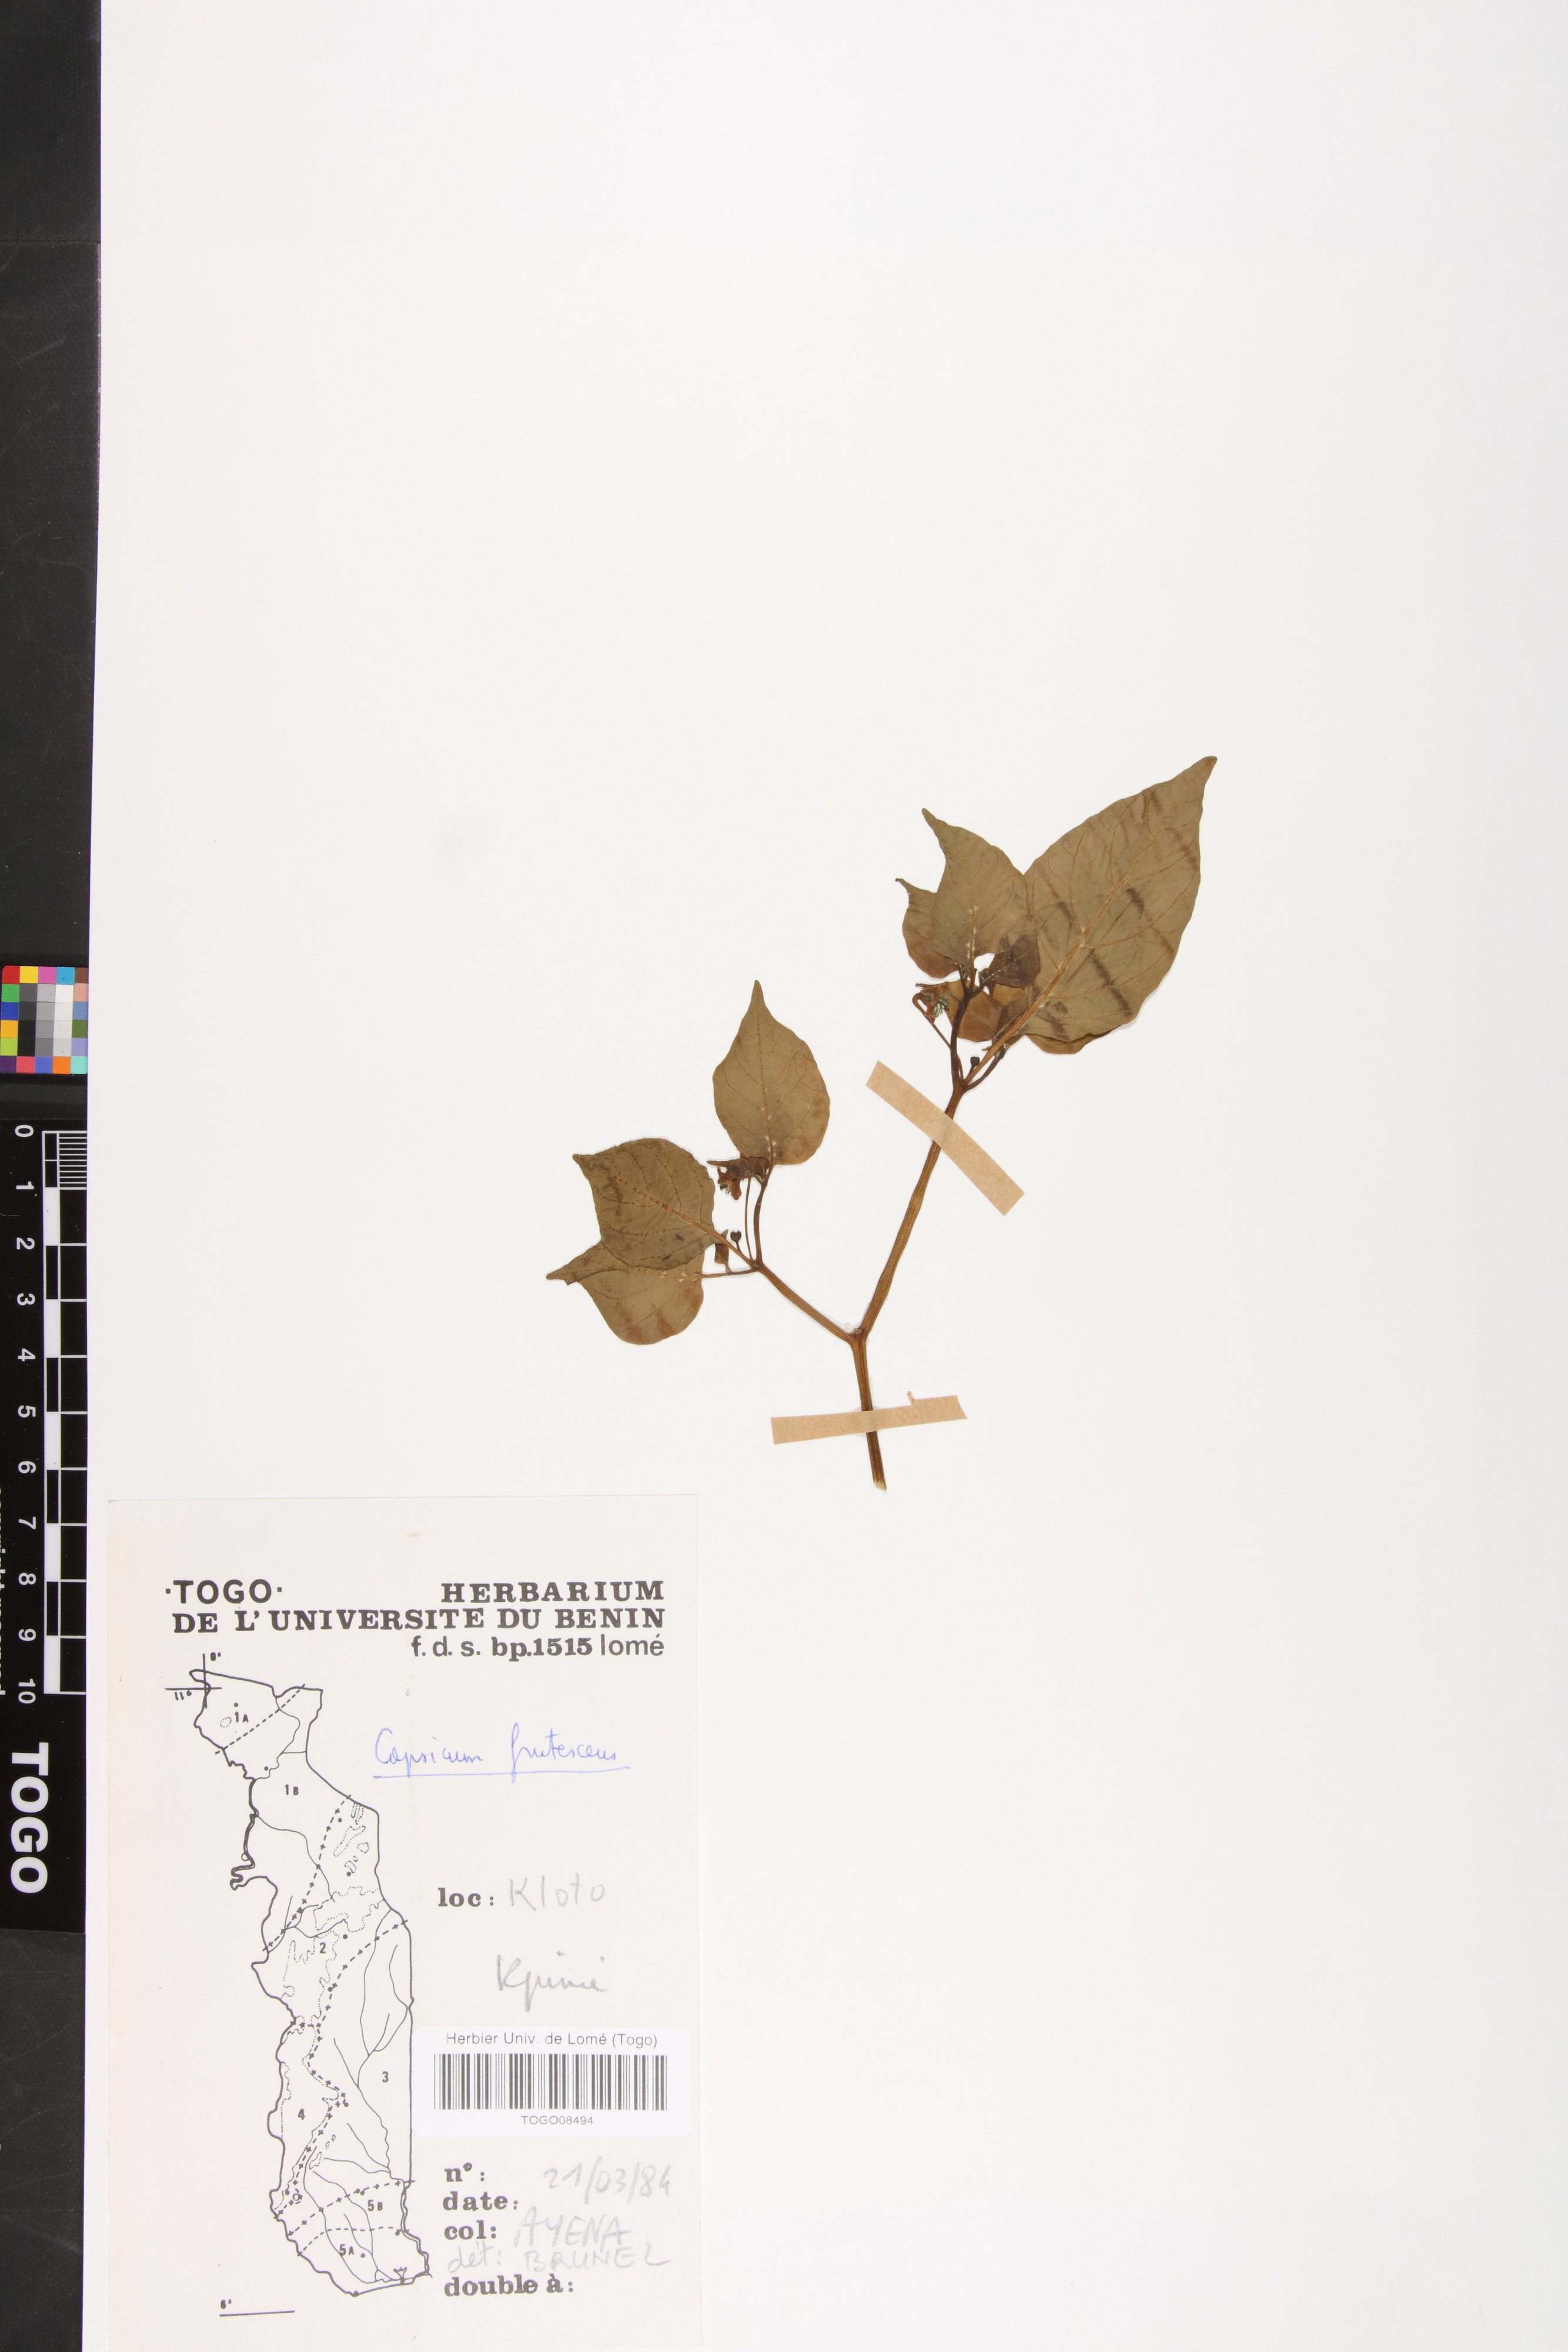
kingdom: Plantae
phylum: Tracheophyta
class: Magnoliopsida
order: Solanales
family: Solanaceae
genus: Capsicum
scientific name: Capsicum frutescens
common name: Bird pepper
